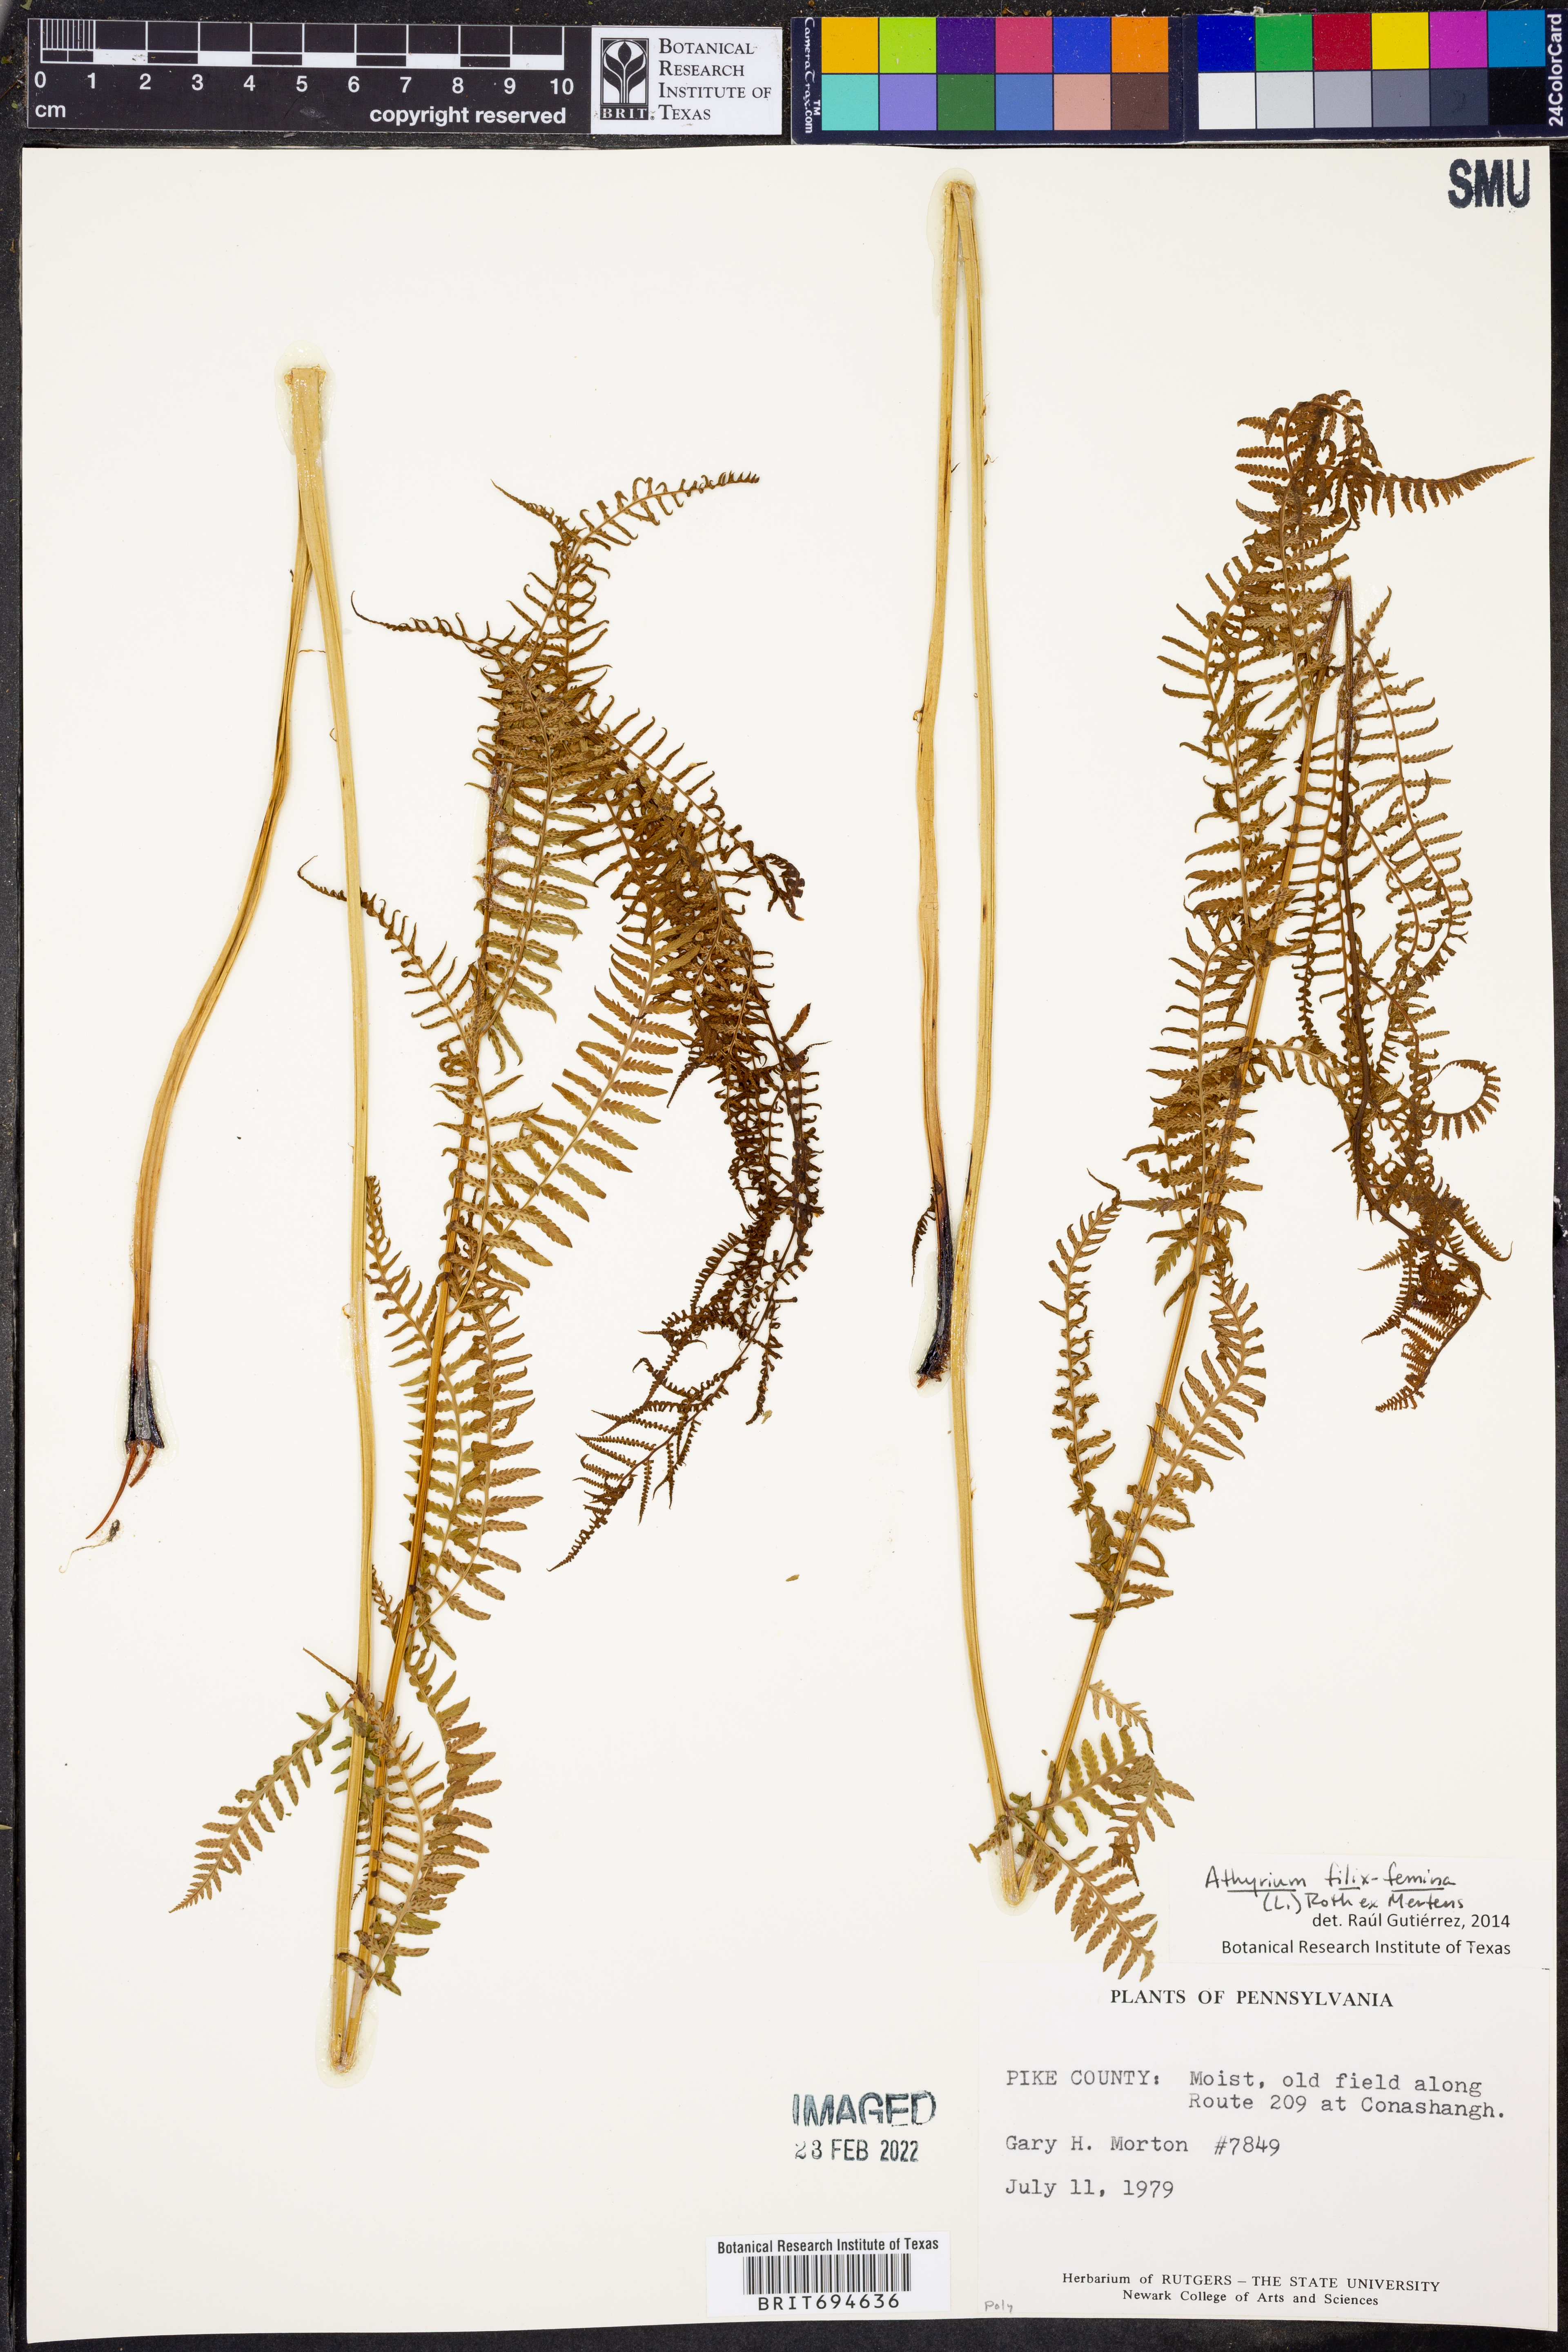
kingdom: Plantae
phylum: Tracheophyta
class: Polypodiopsida
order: Polypodiales
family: Athyriaceae
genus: Athyrium
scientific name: Athyrium filix-femina
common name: Lady fern
